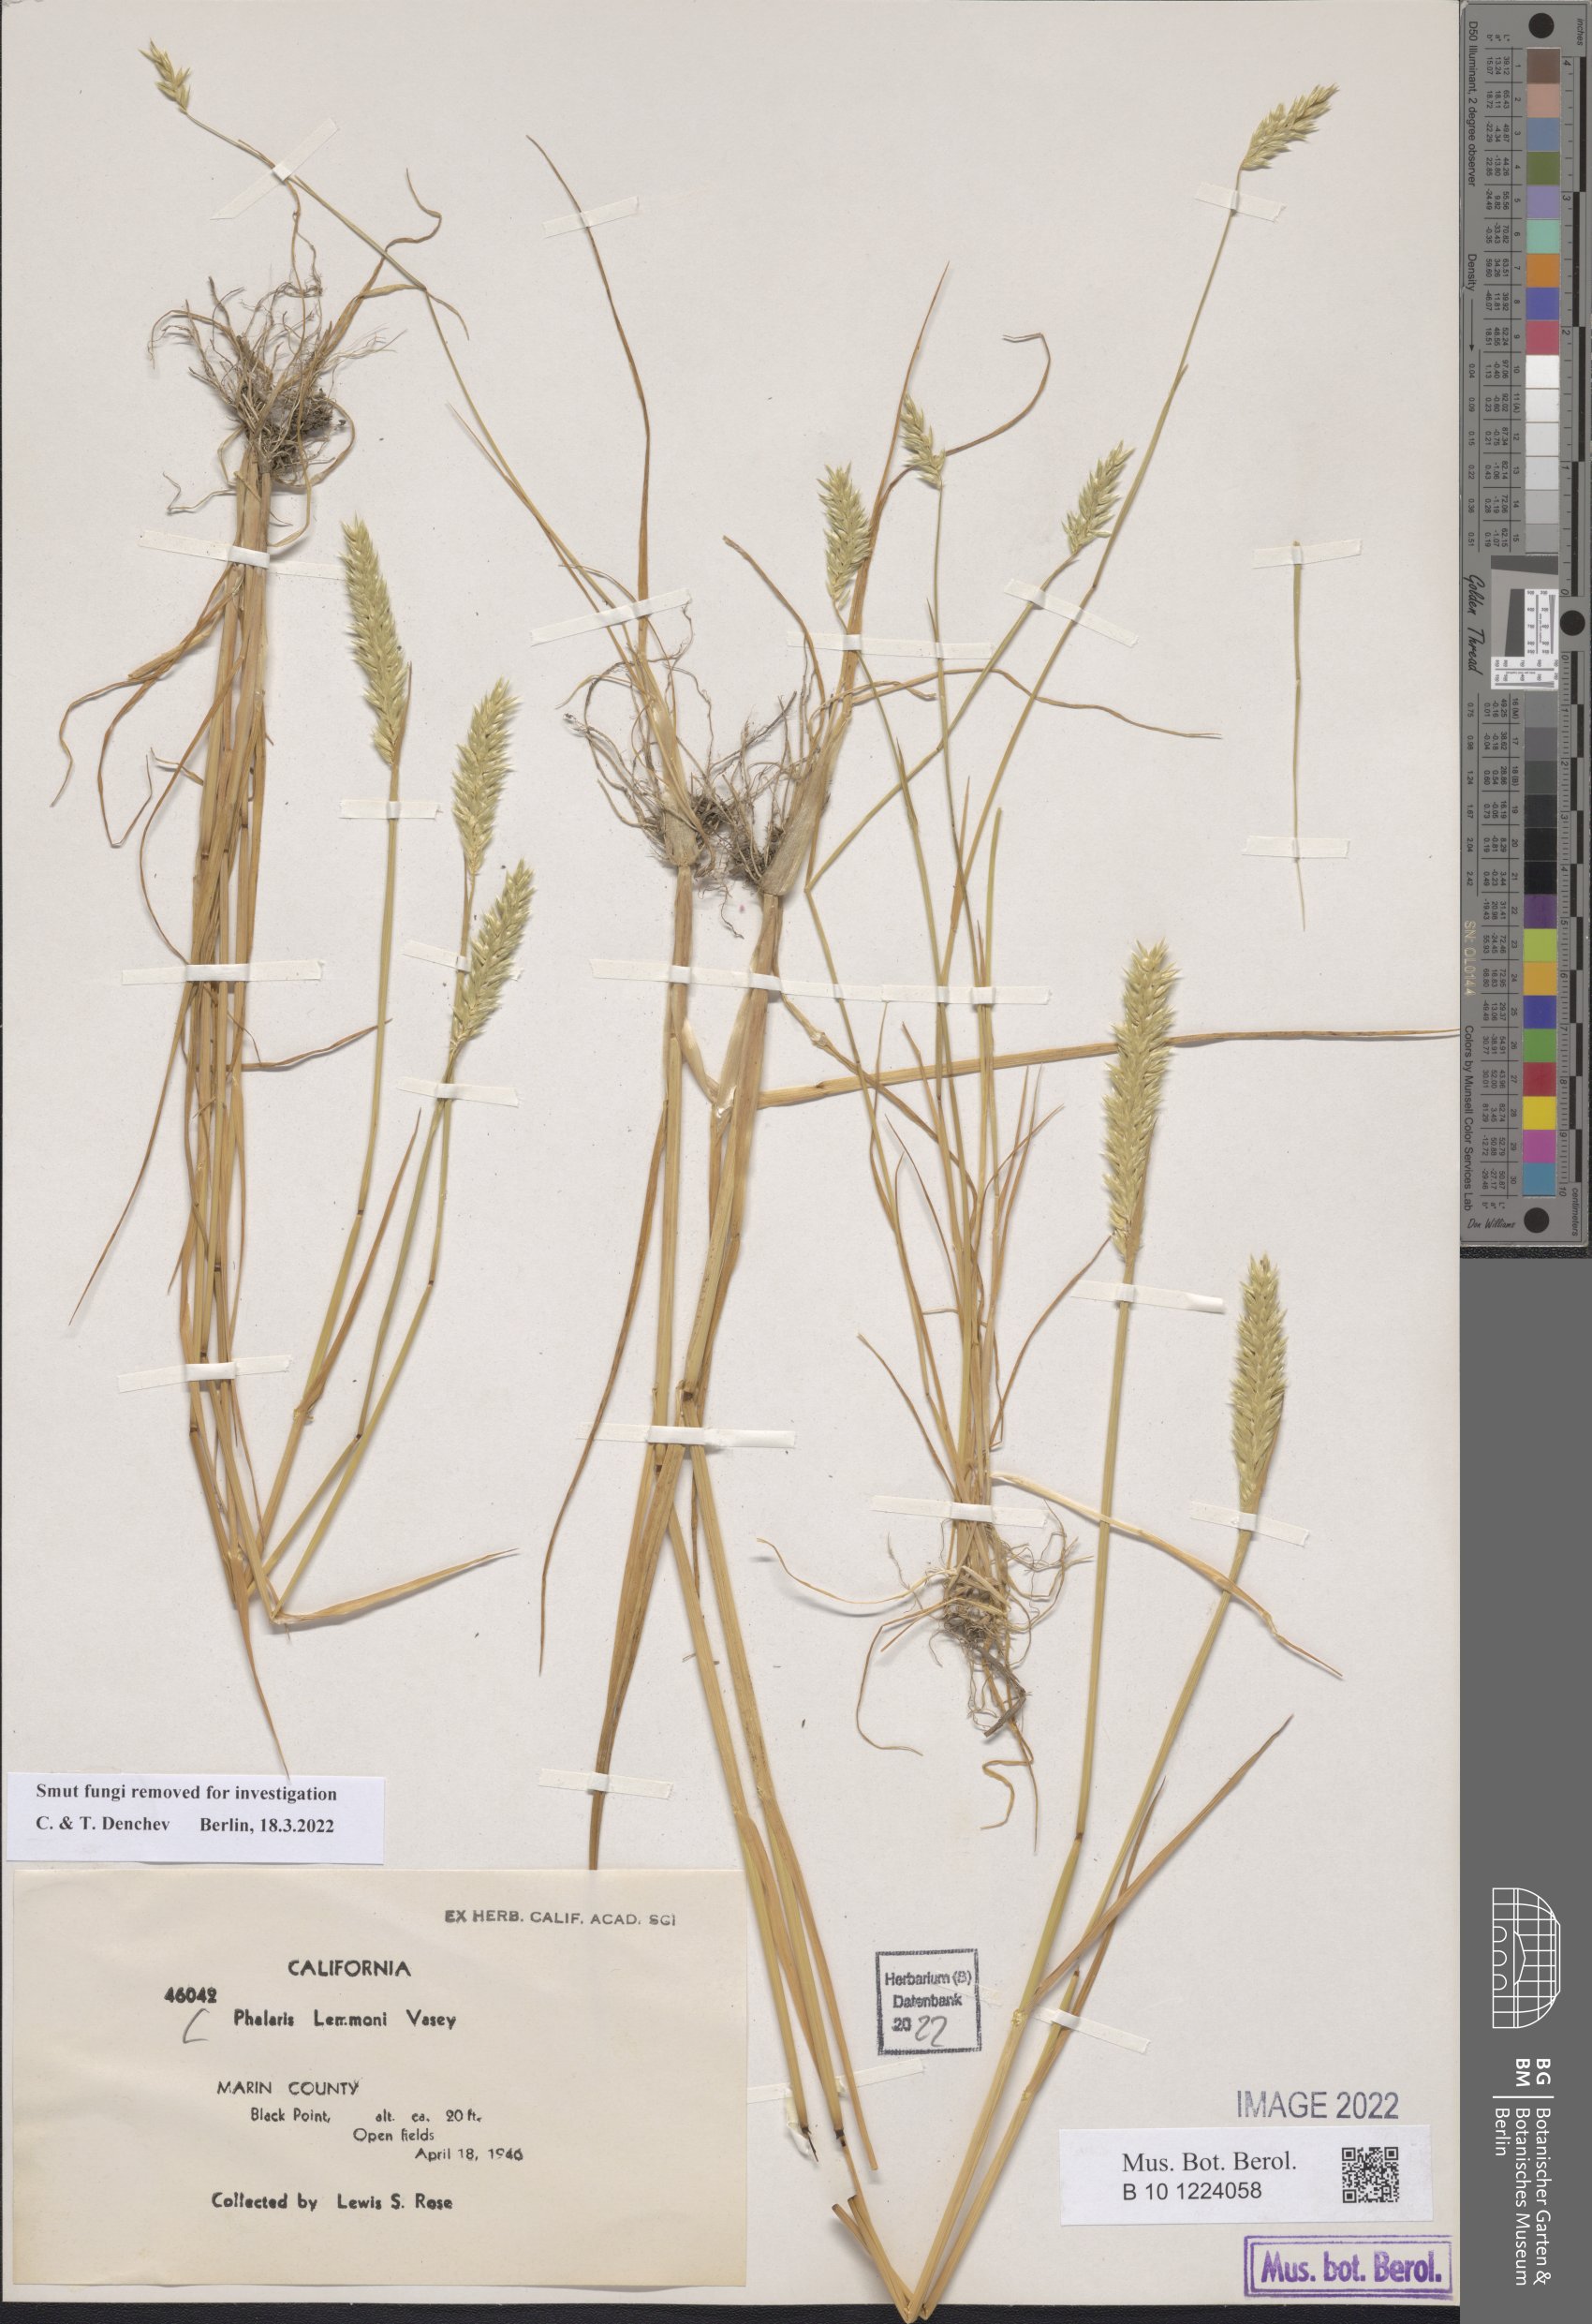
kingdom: Plantae
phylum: Tracheophyta
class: Liliopsida
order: Poales
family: Poaceae
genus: Phalaris
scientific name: Phalaris lemmonii
